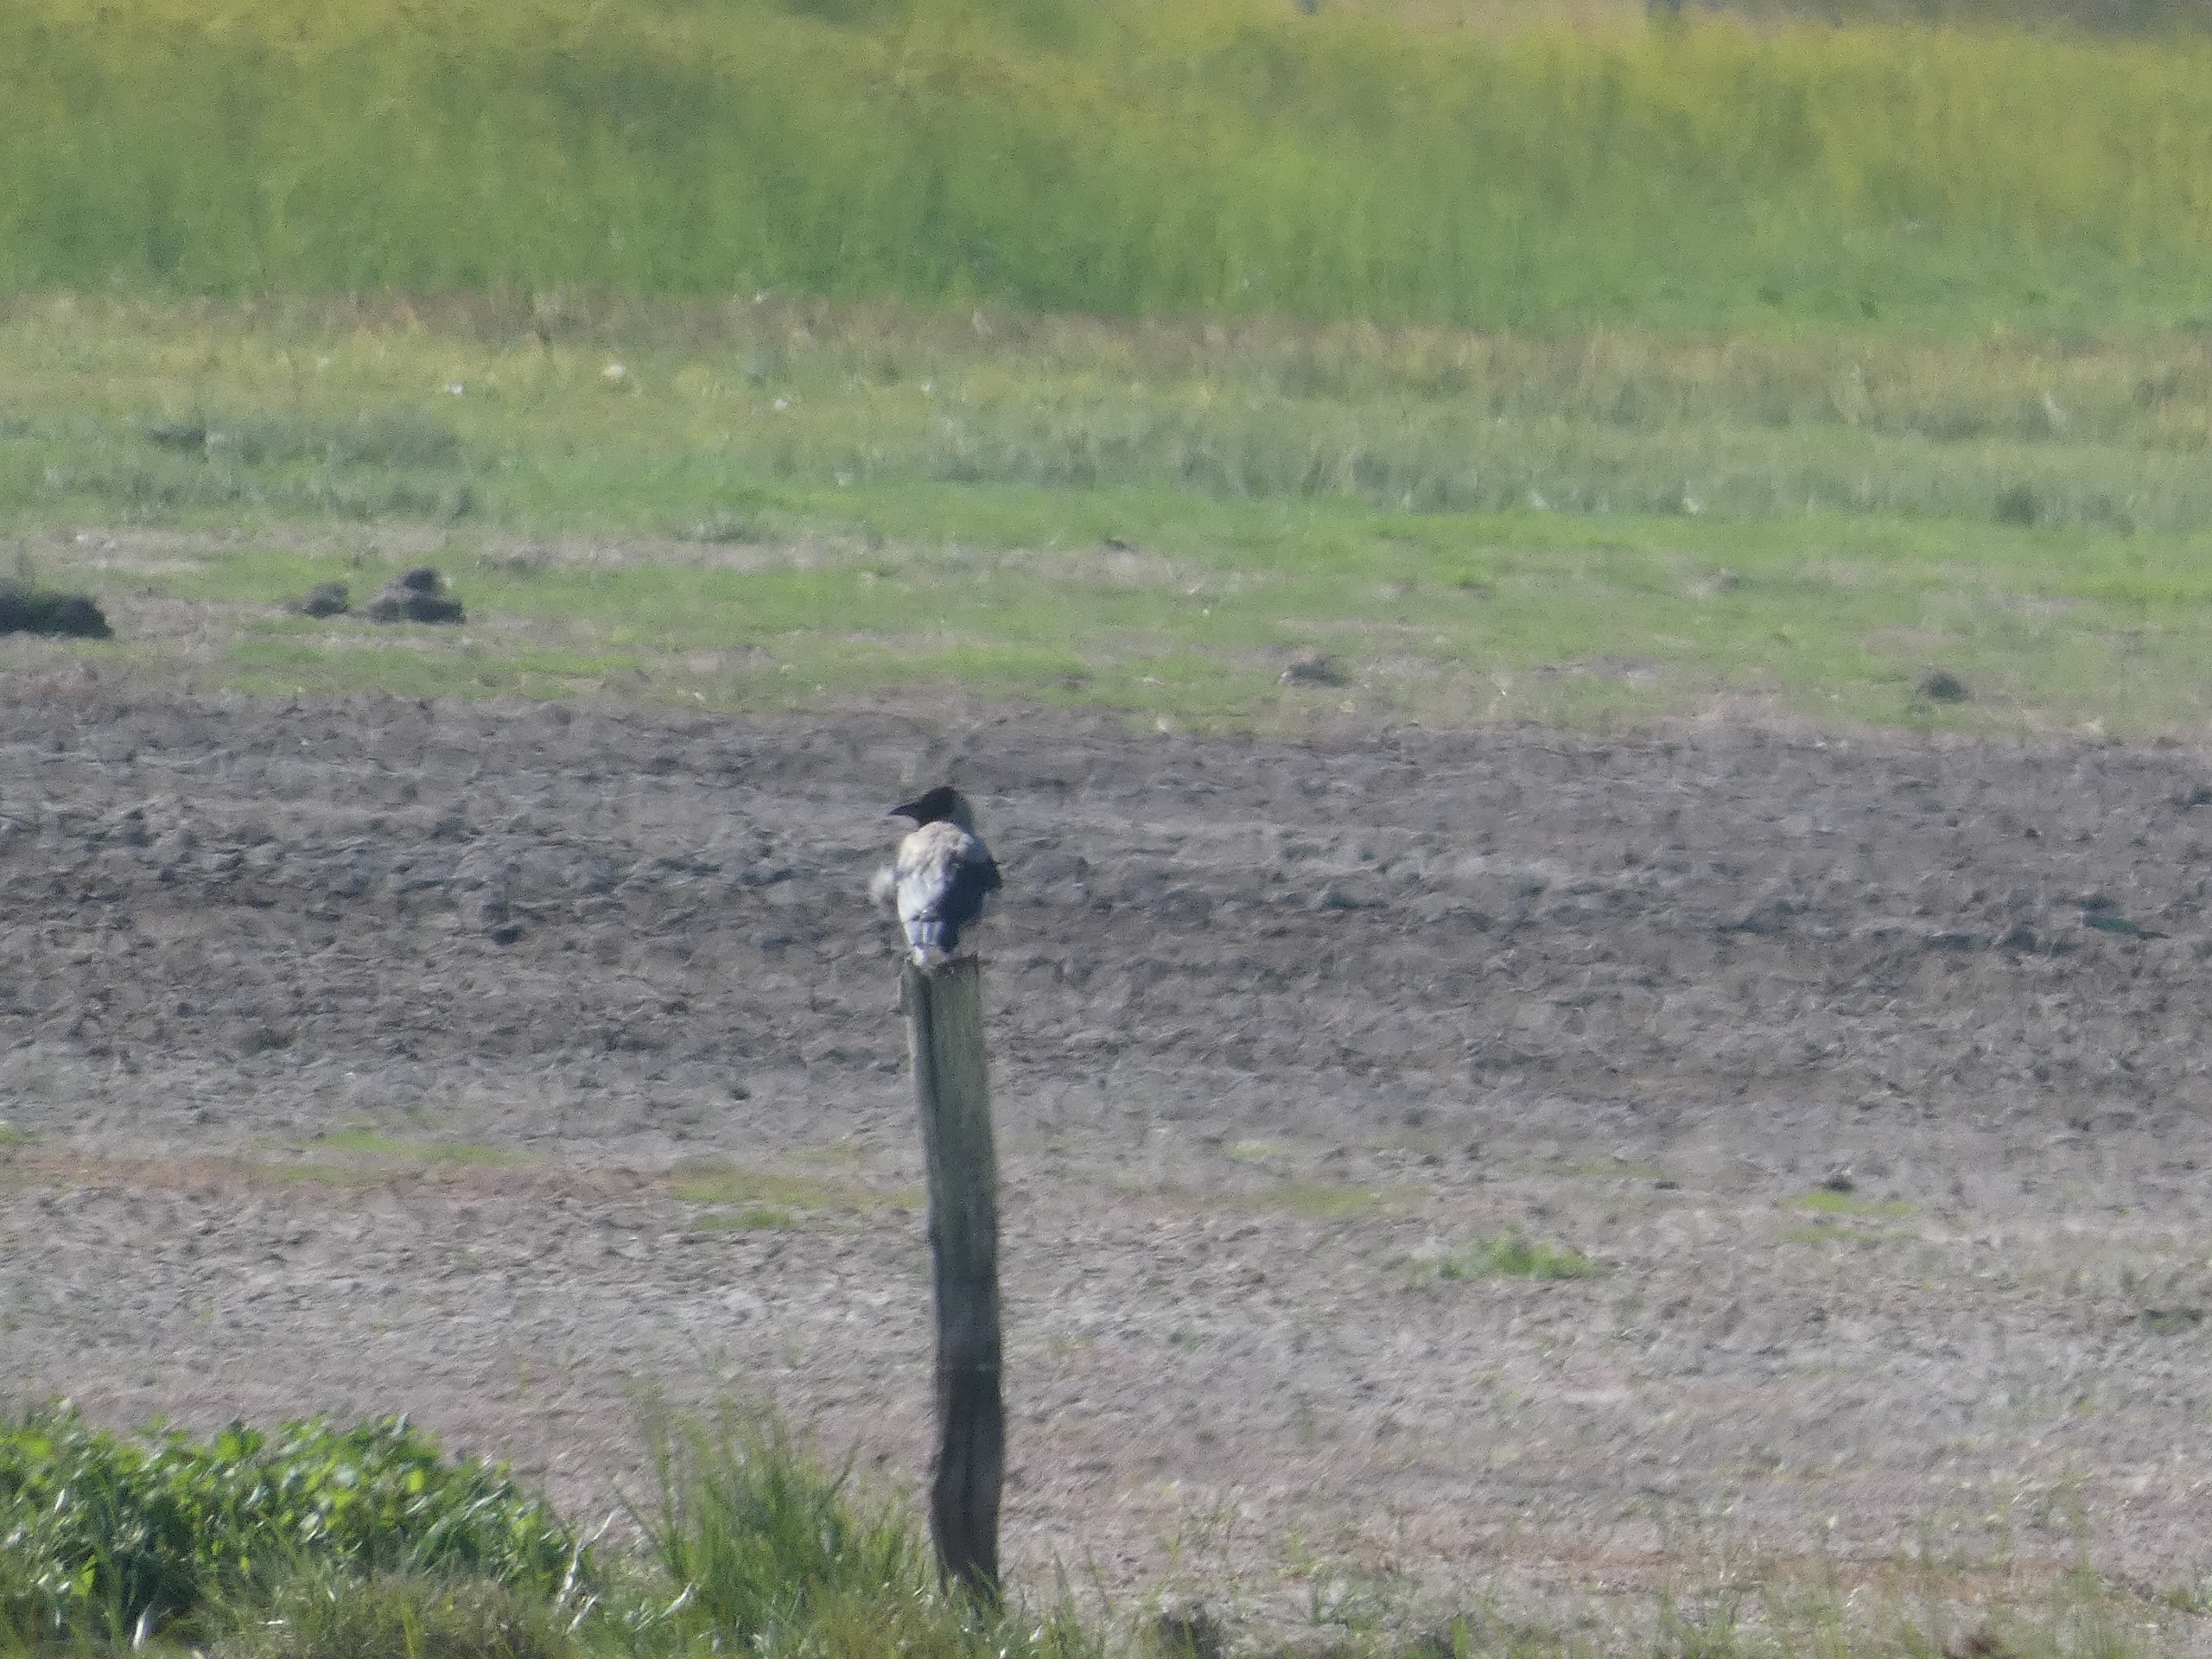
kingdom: Animalia
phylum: Chordata
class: Aves
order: Passeriformes
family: Corvidae
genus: Corvus
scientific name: Corvus cornix
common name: Gråkrage
